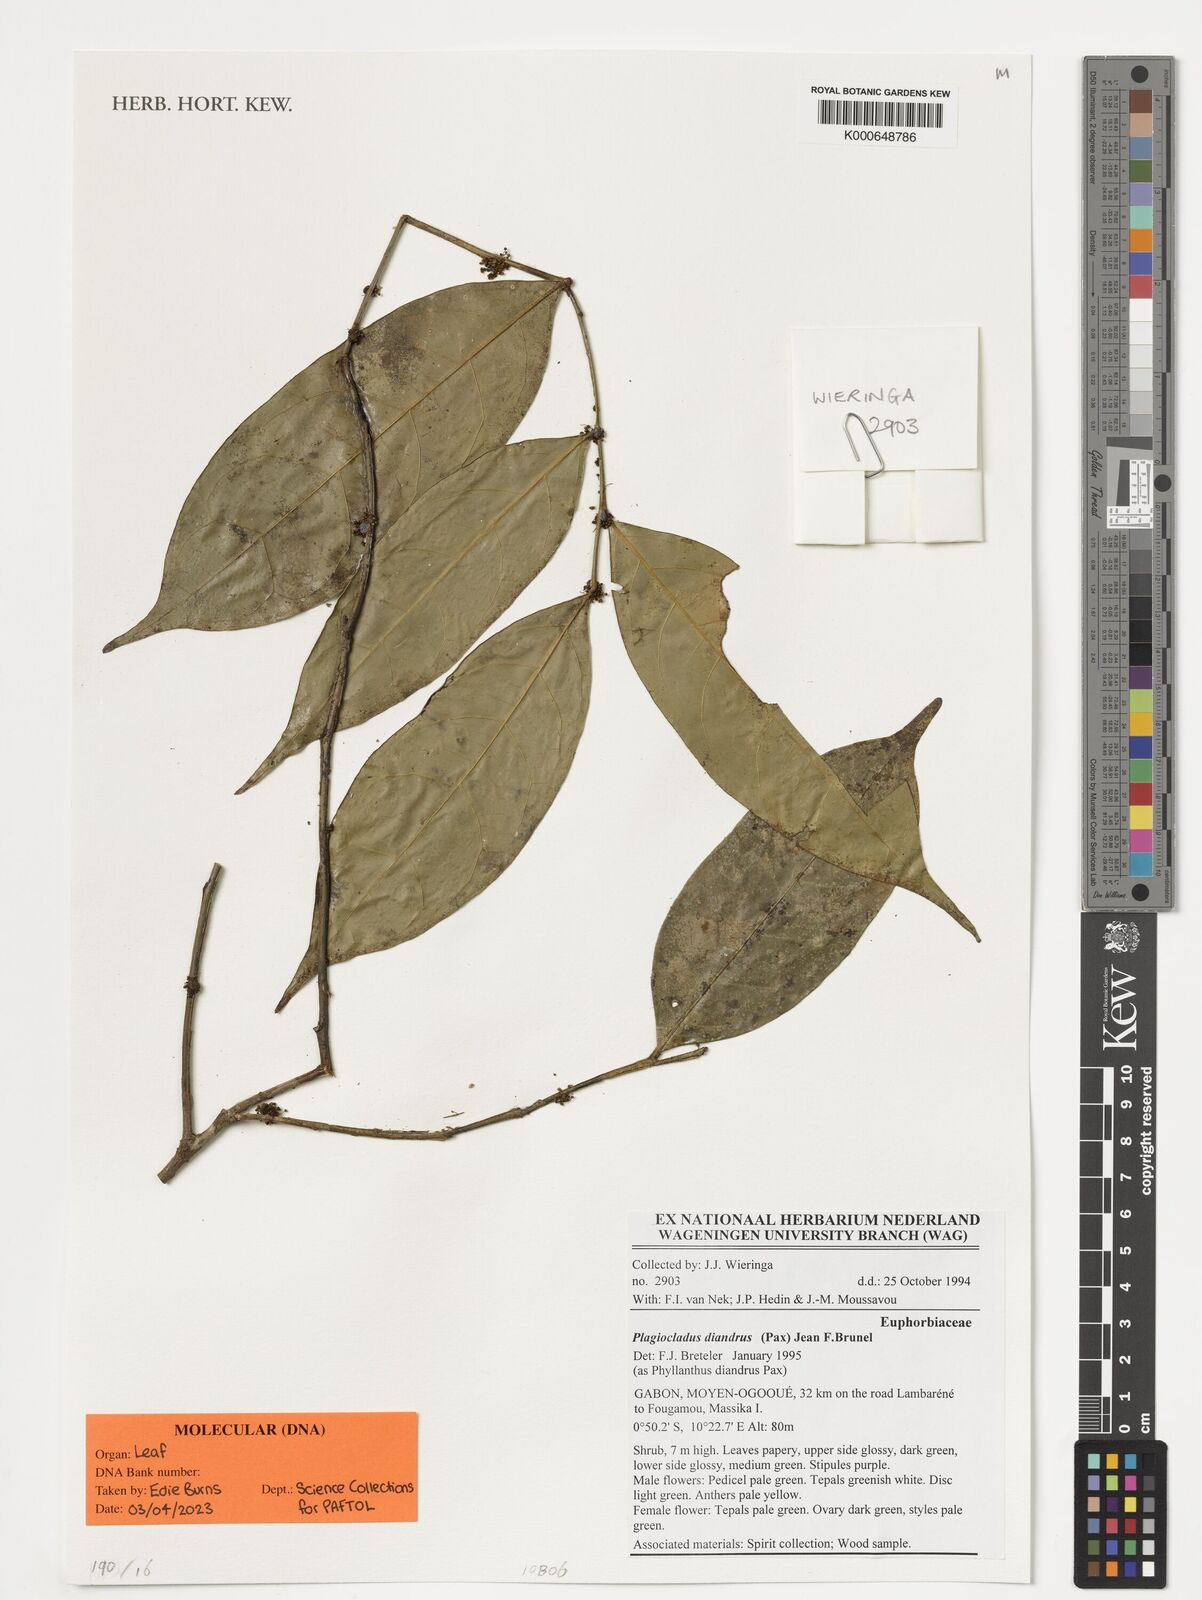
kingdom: Plantae
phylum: Tracheophyta
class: Magnoliopsida
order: Malpighiales
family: Phyllanthaceae
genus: Plagiocladus
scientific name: Plagiocladus diandrus
